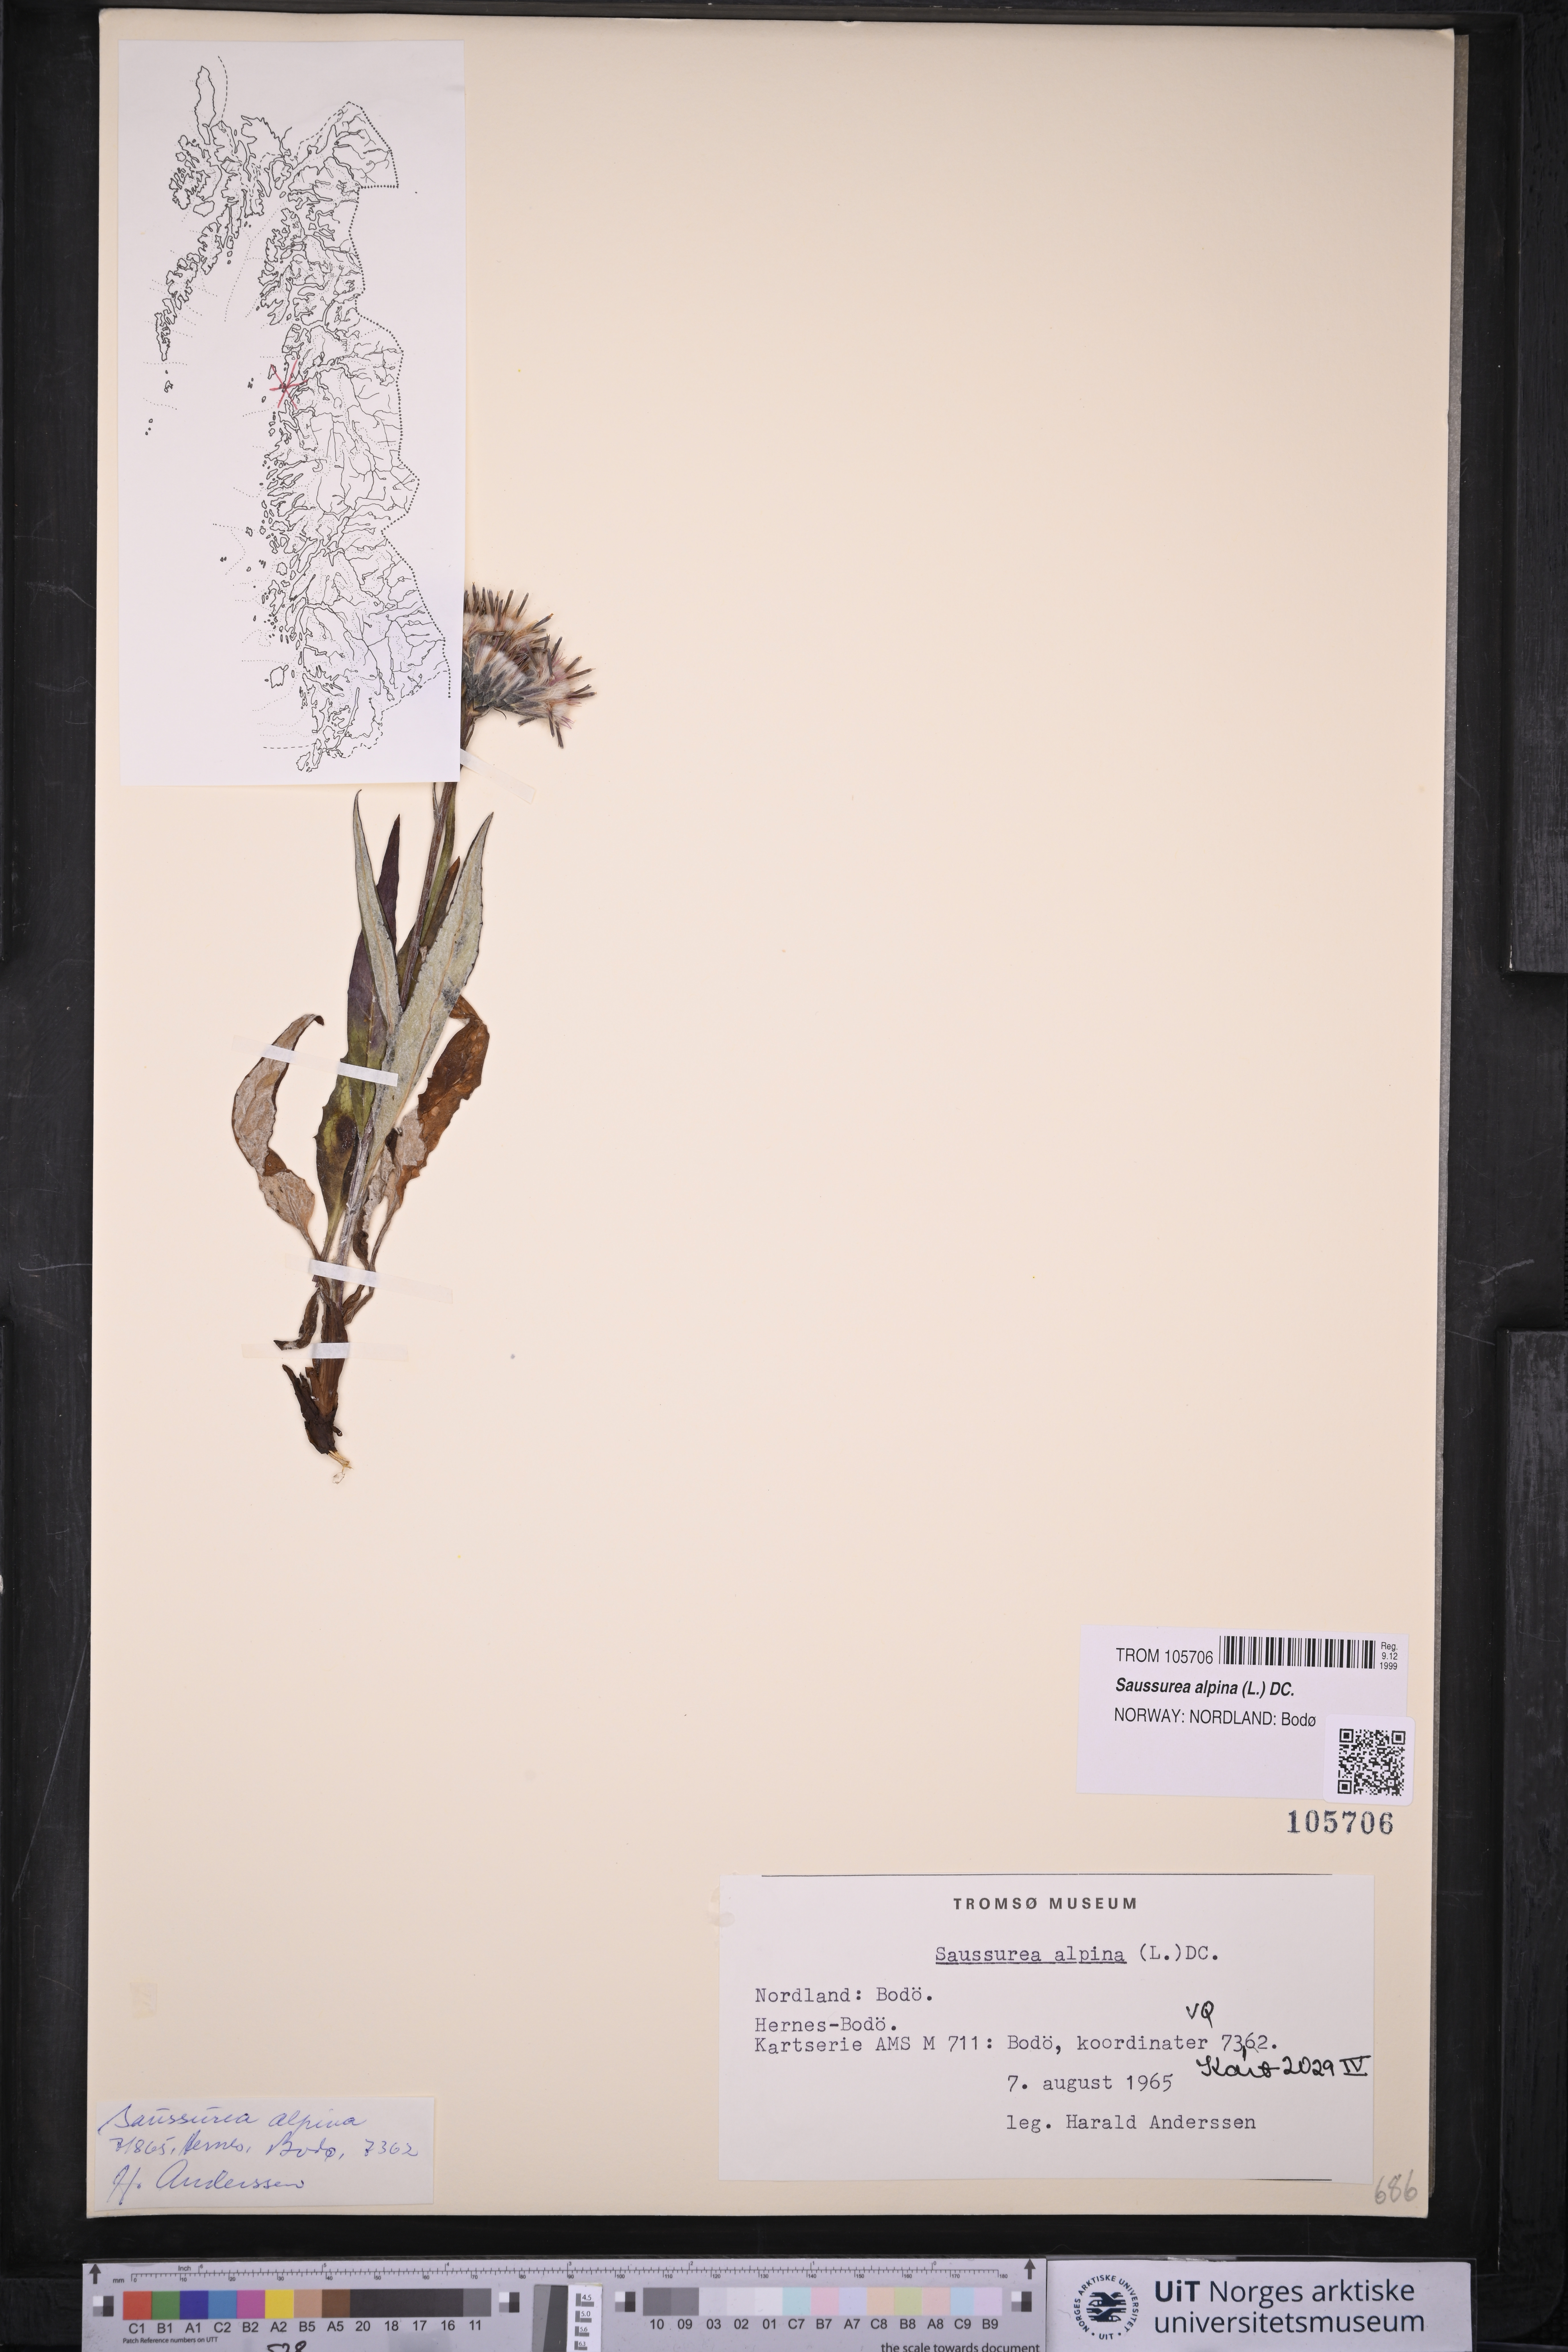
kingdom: Plantae
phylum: Tracheophyta
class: Magnoliopsida
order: Asterales
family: Asteraceae
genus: Saussurea
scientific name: Saussurea alpina
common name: Alpine saw-wort
